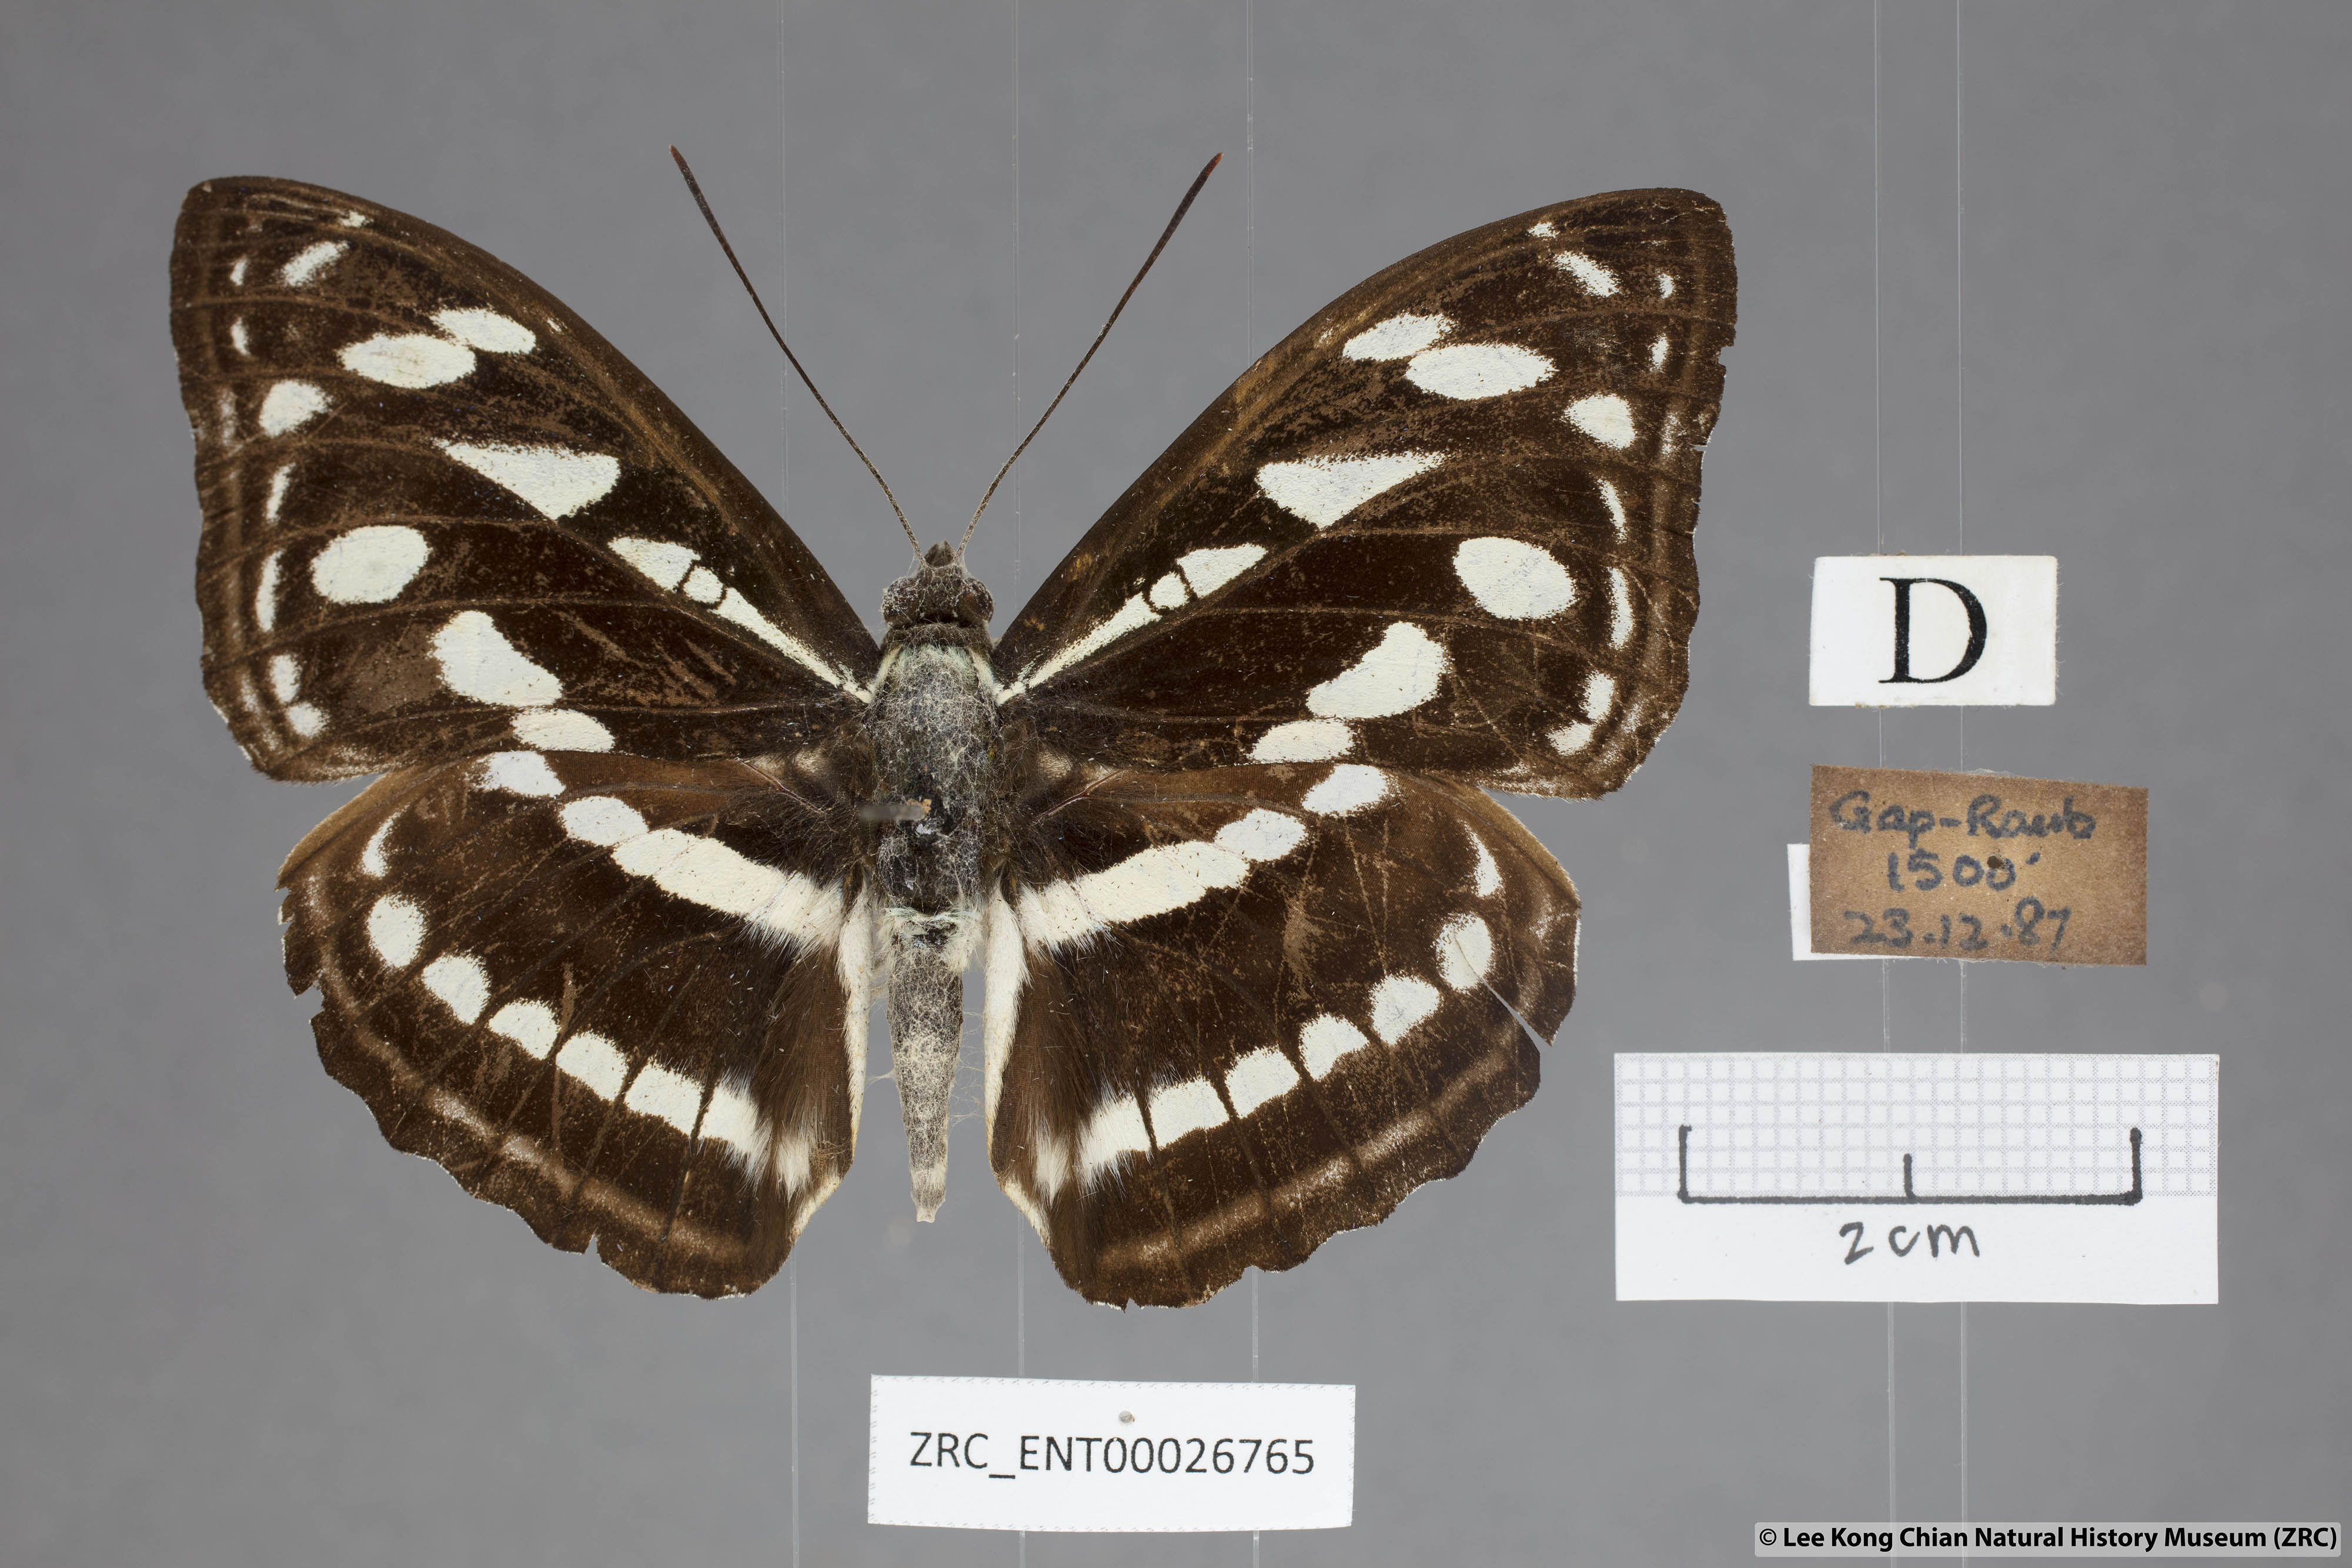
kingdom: Animalia
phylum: Arthropoda
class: Insecta
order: Lepidoptera
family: Nymphalidae
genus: Pantoporia
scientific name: Pantoporia larymna
